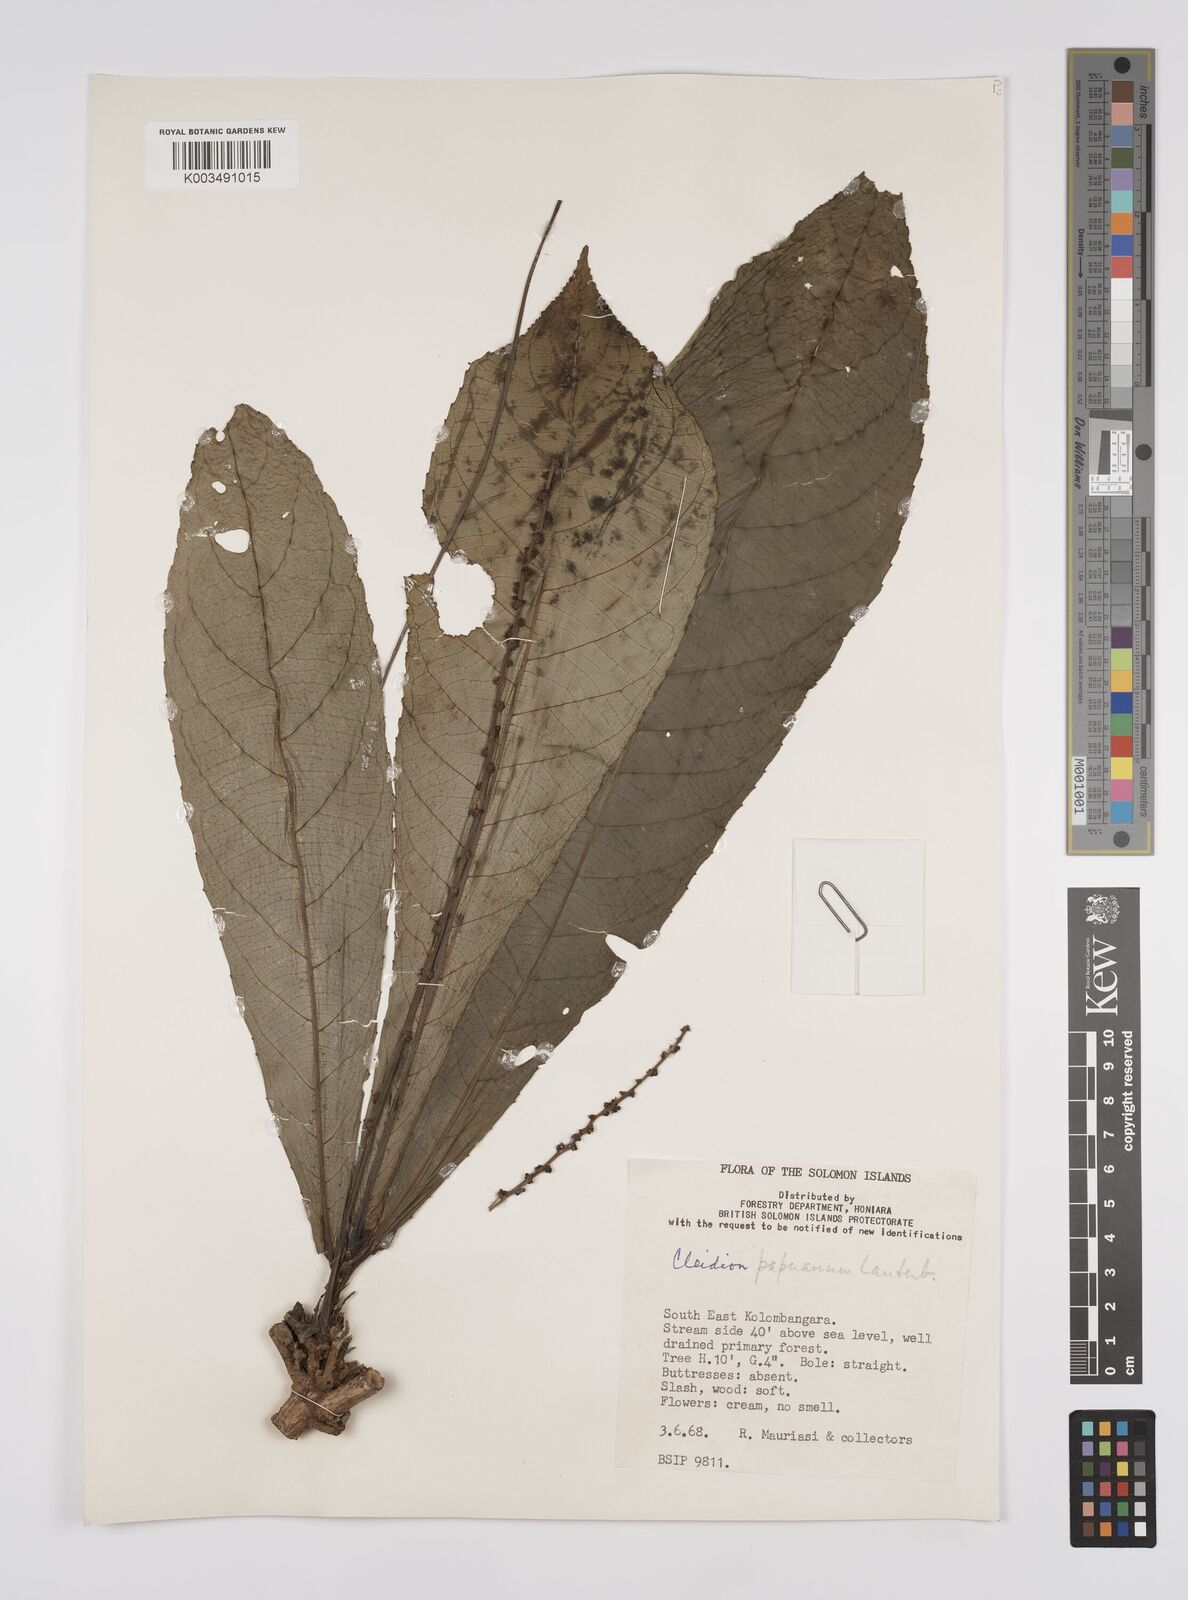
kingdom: Plantae
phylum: Tracheophyta
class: Magnoliopsida
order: Malpighiales
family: Euphorbiaceae
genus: Cleidion
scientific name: Cleidion papuanum
